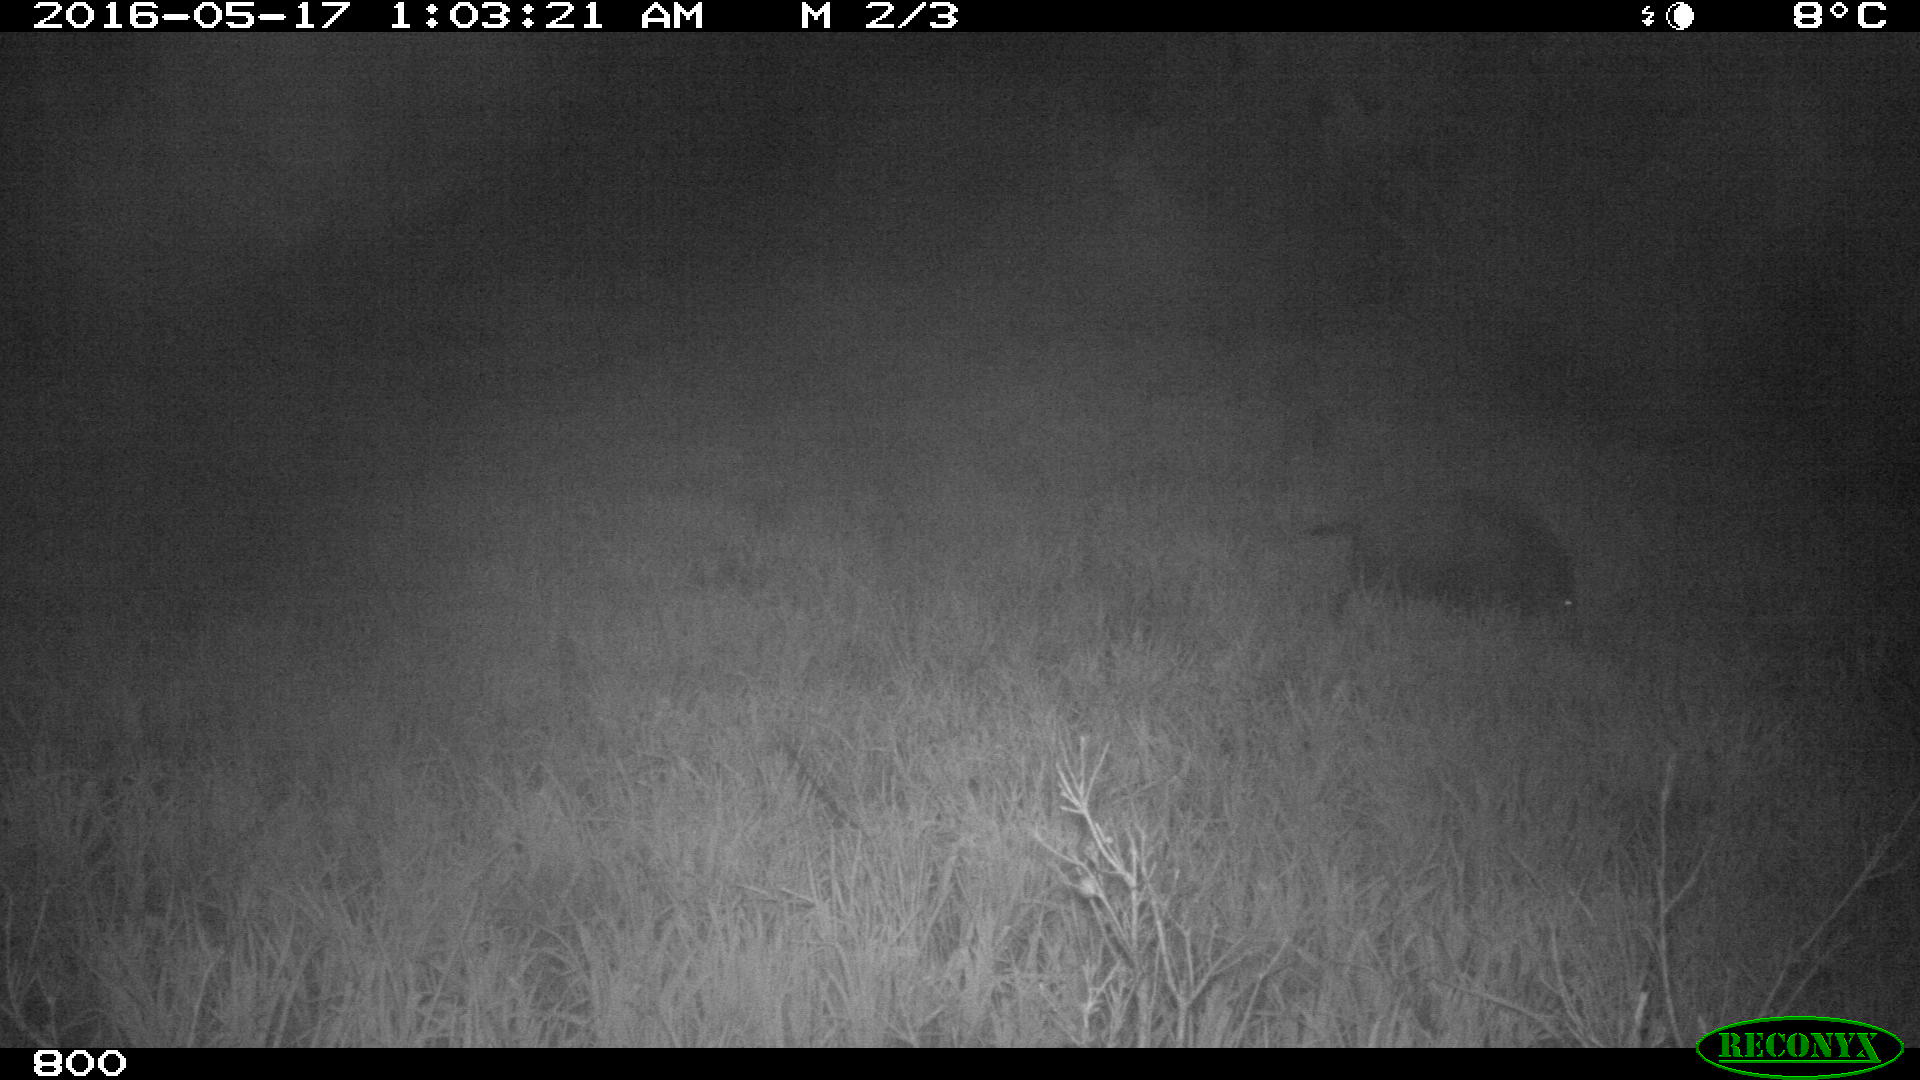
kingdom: Animalia
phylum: Chordata
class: Mammalia
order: Artiodactyla
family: Suidae
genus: Sus
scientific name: Sus scrofa
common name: Wild boar
